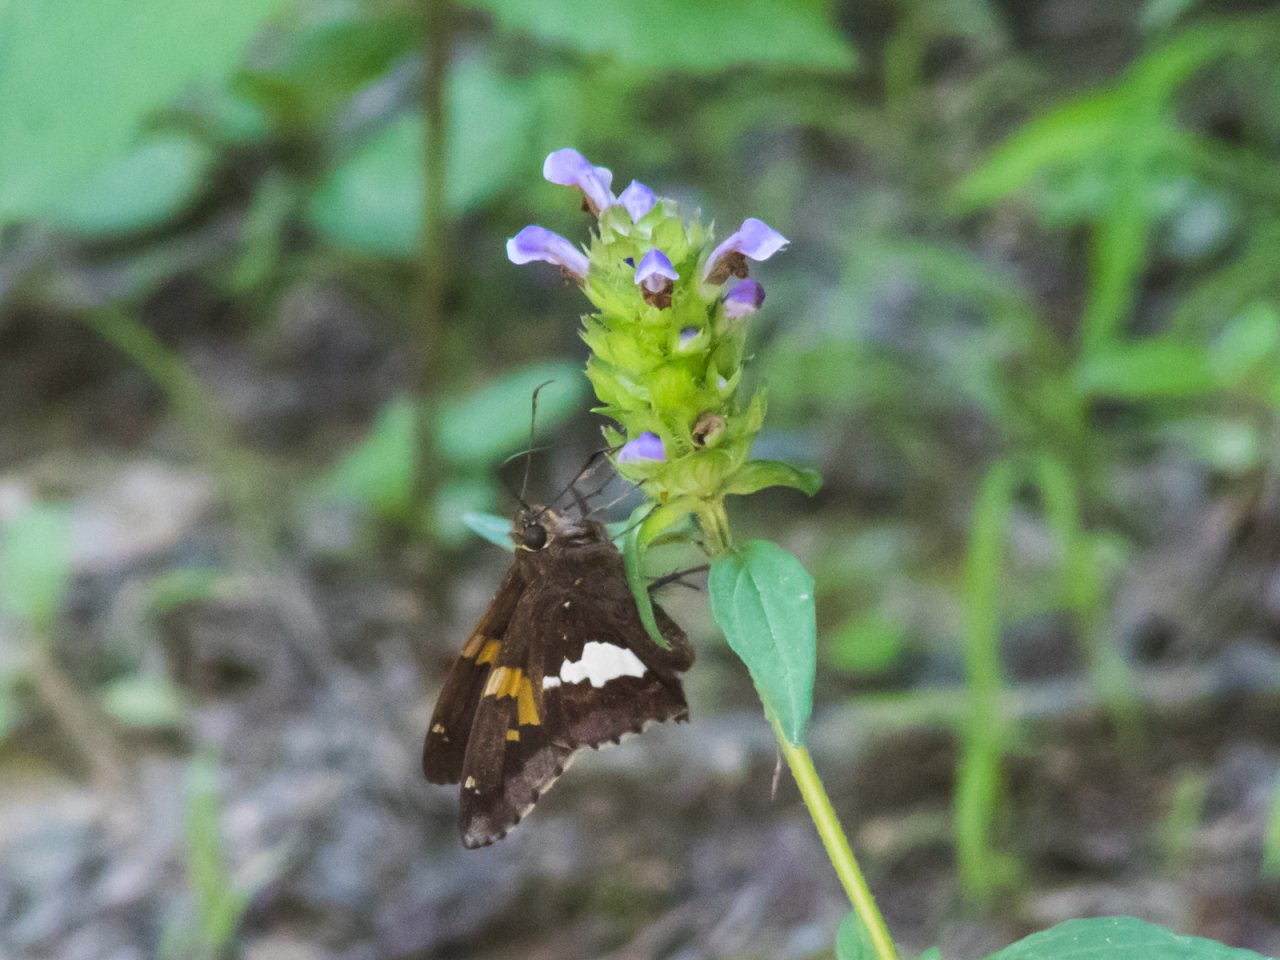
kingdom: Animalia
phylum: Arthropoda
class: Insecta
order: Lepidoptera
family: Hesperiidae
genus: Epargyreus
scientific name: Epargyreus clarus
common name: Silver-spotted Skipper
